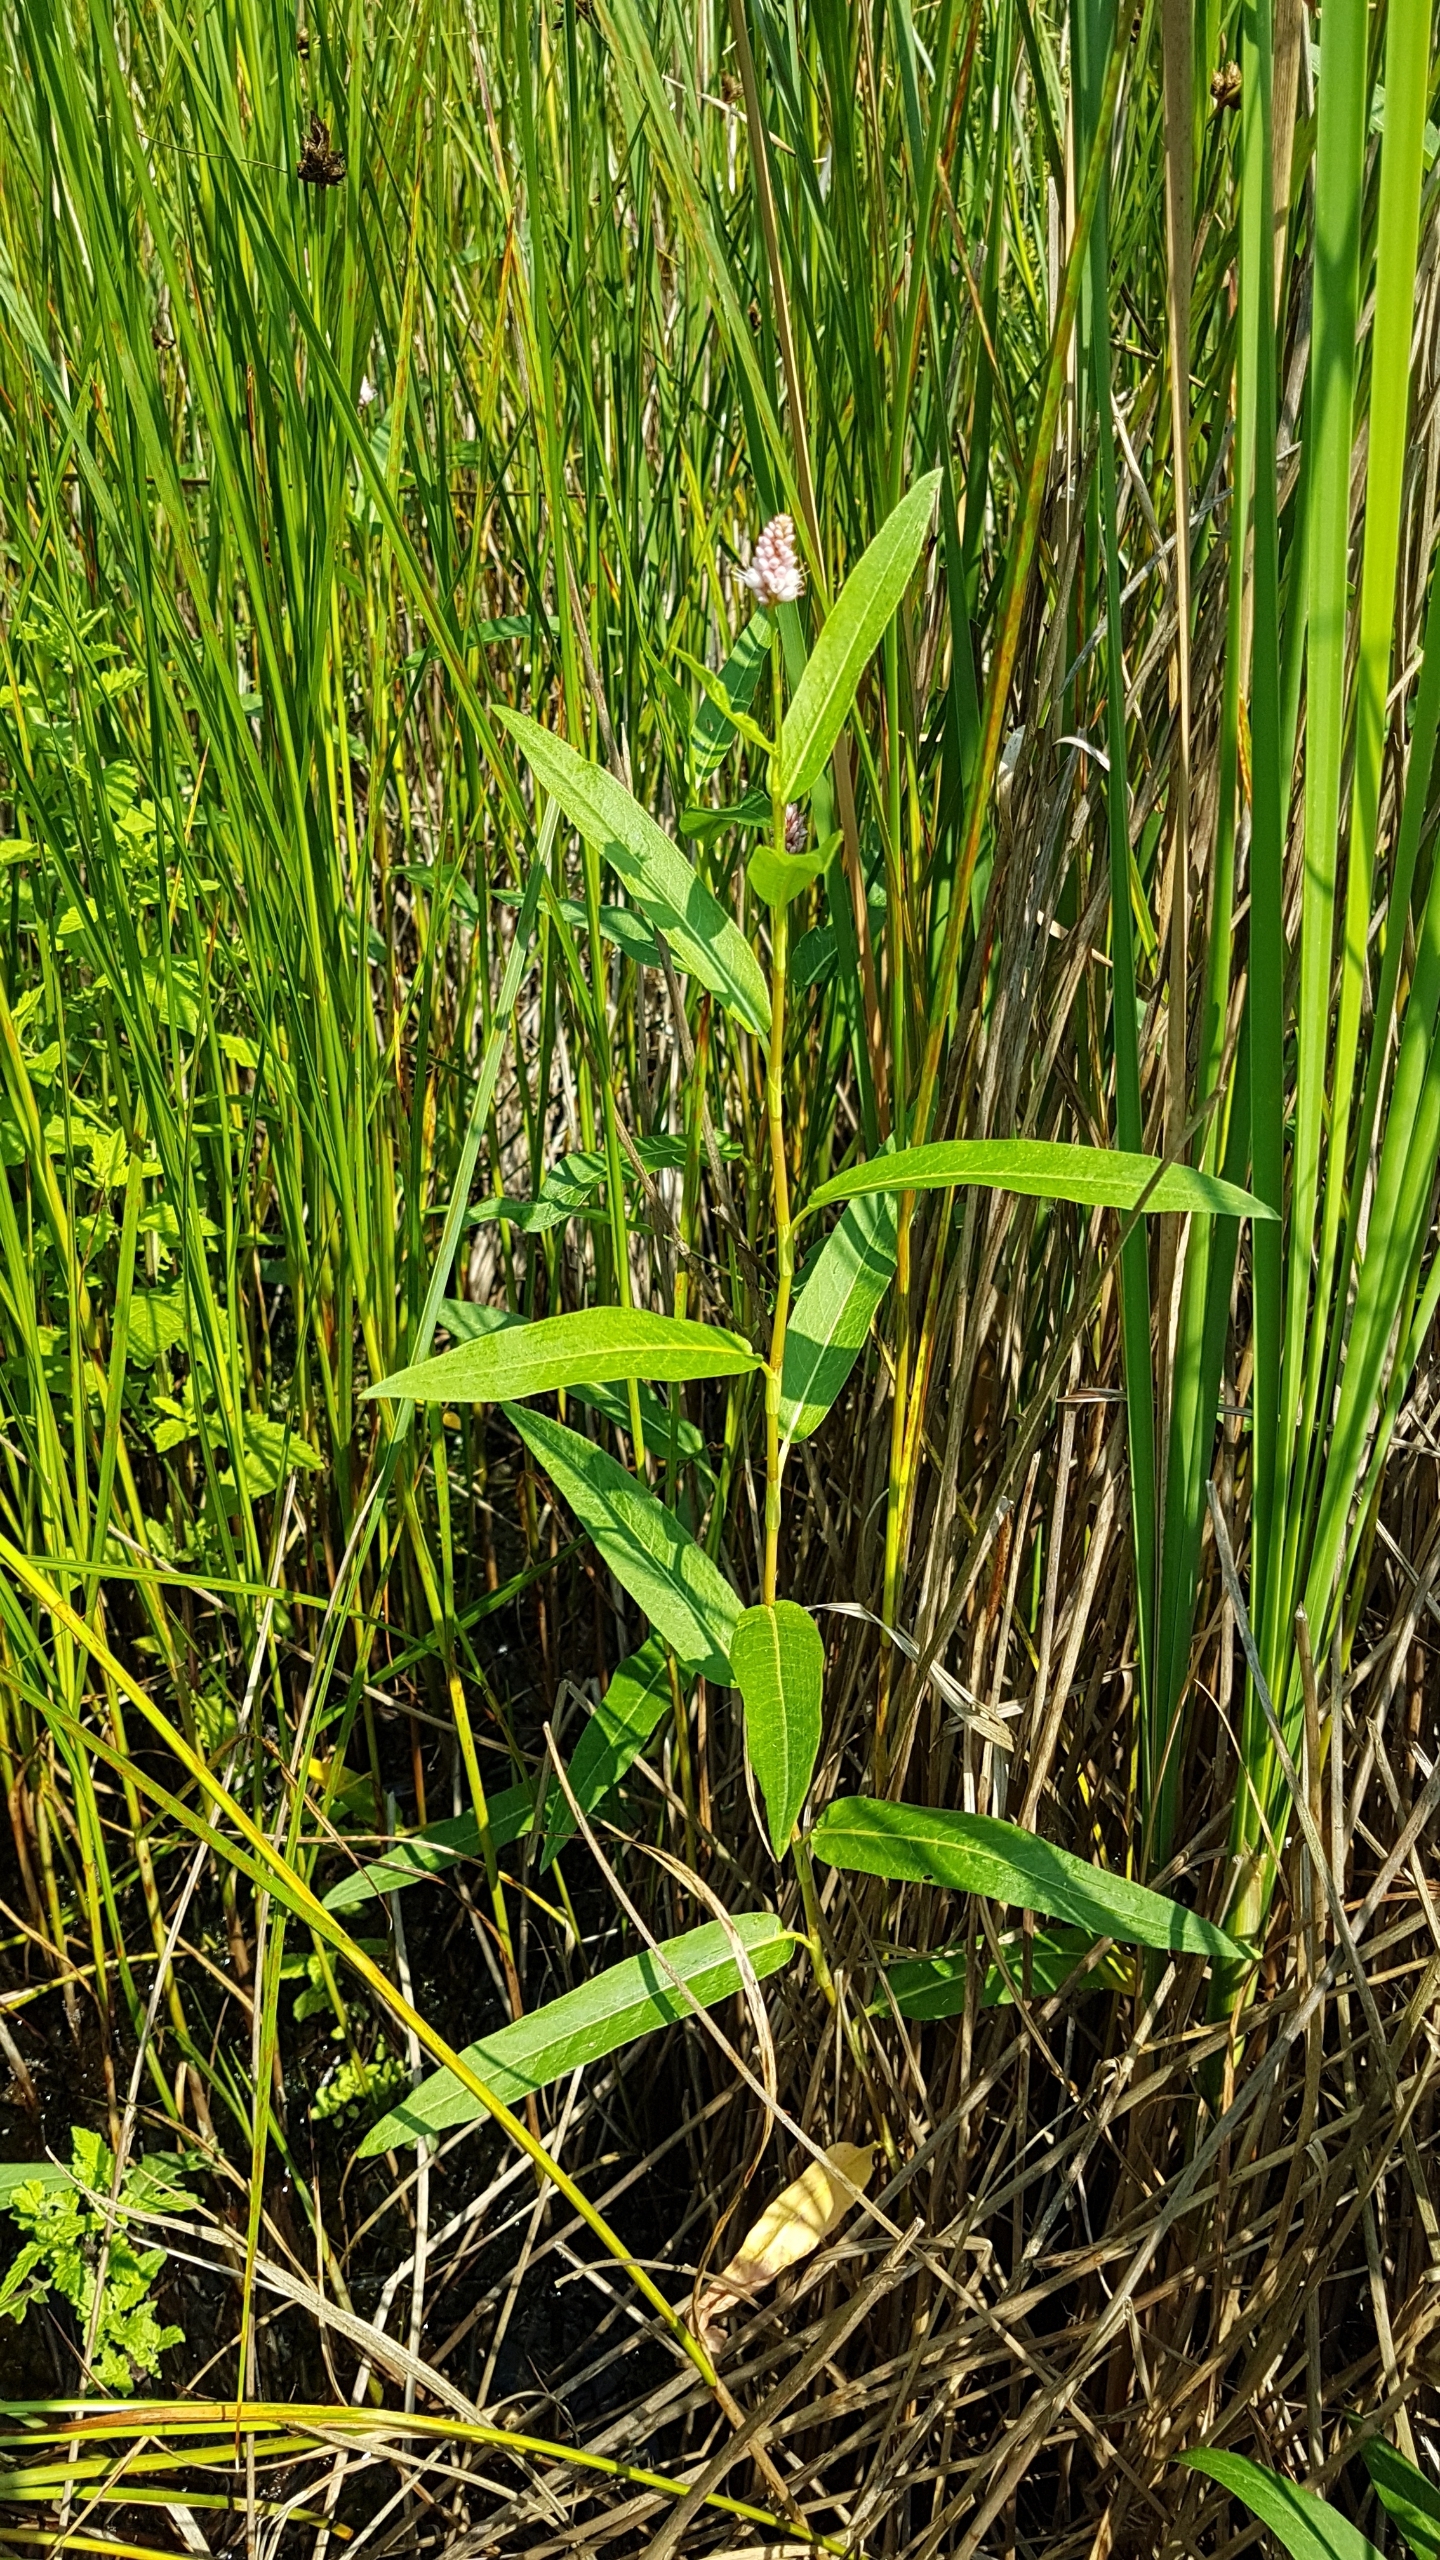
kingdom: Plantae
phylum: Tracheophyta
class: Magnoliopsida
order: Caryophyllales
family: Polygonaceae
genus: Persicaria
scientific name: Persicaria amphibia
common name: Vand-pileurt
